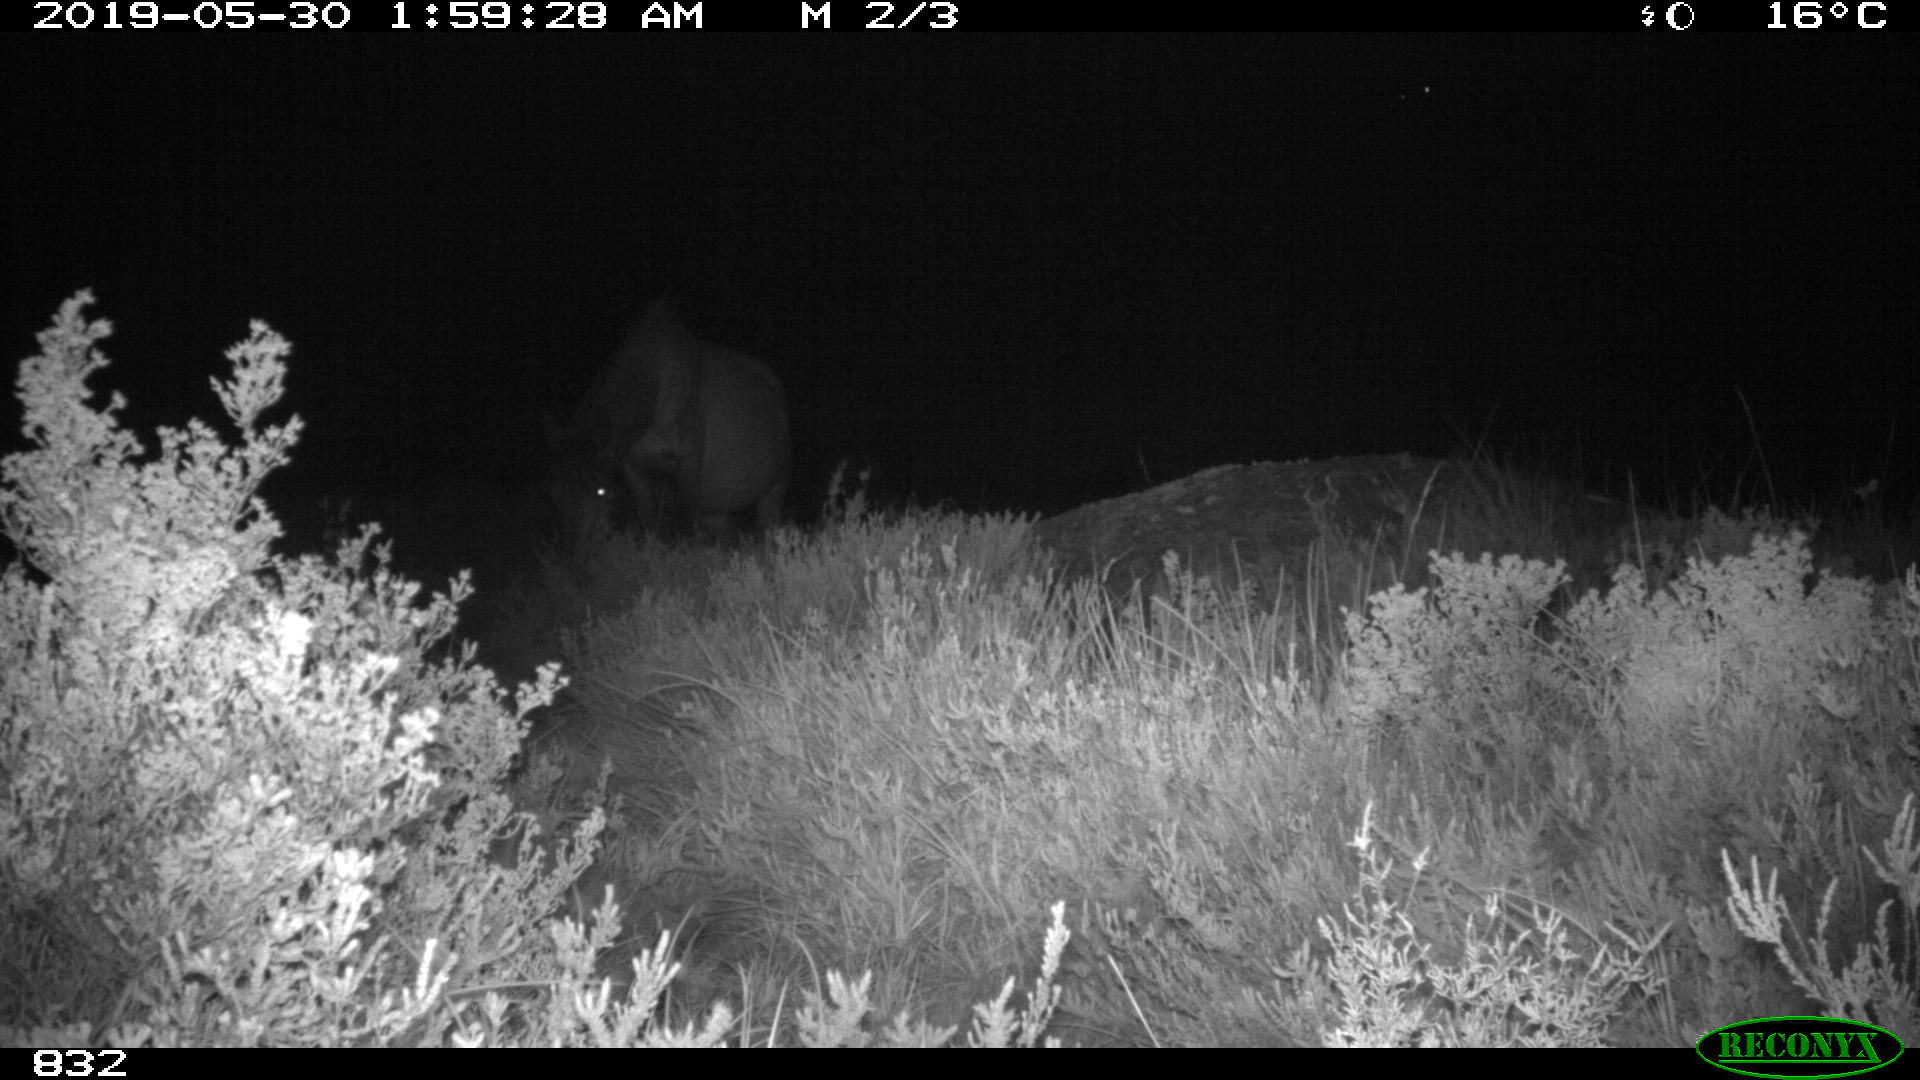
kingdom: Animalia
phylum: Chordata
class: Mammalia
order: Perissodactyla
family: Equidae
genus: Equus
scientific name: Equus caballus
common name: Horse
